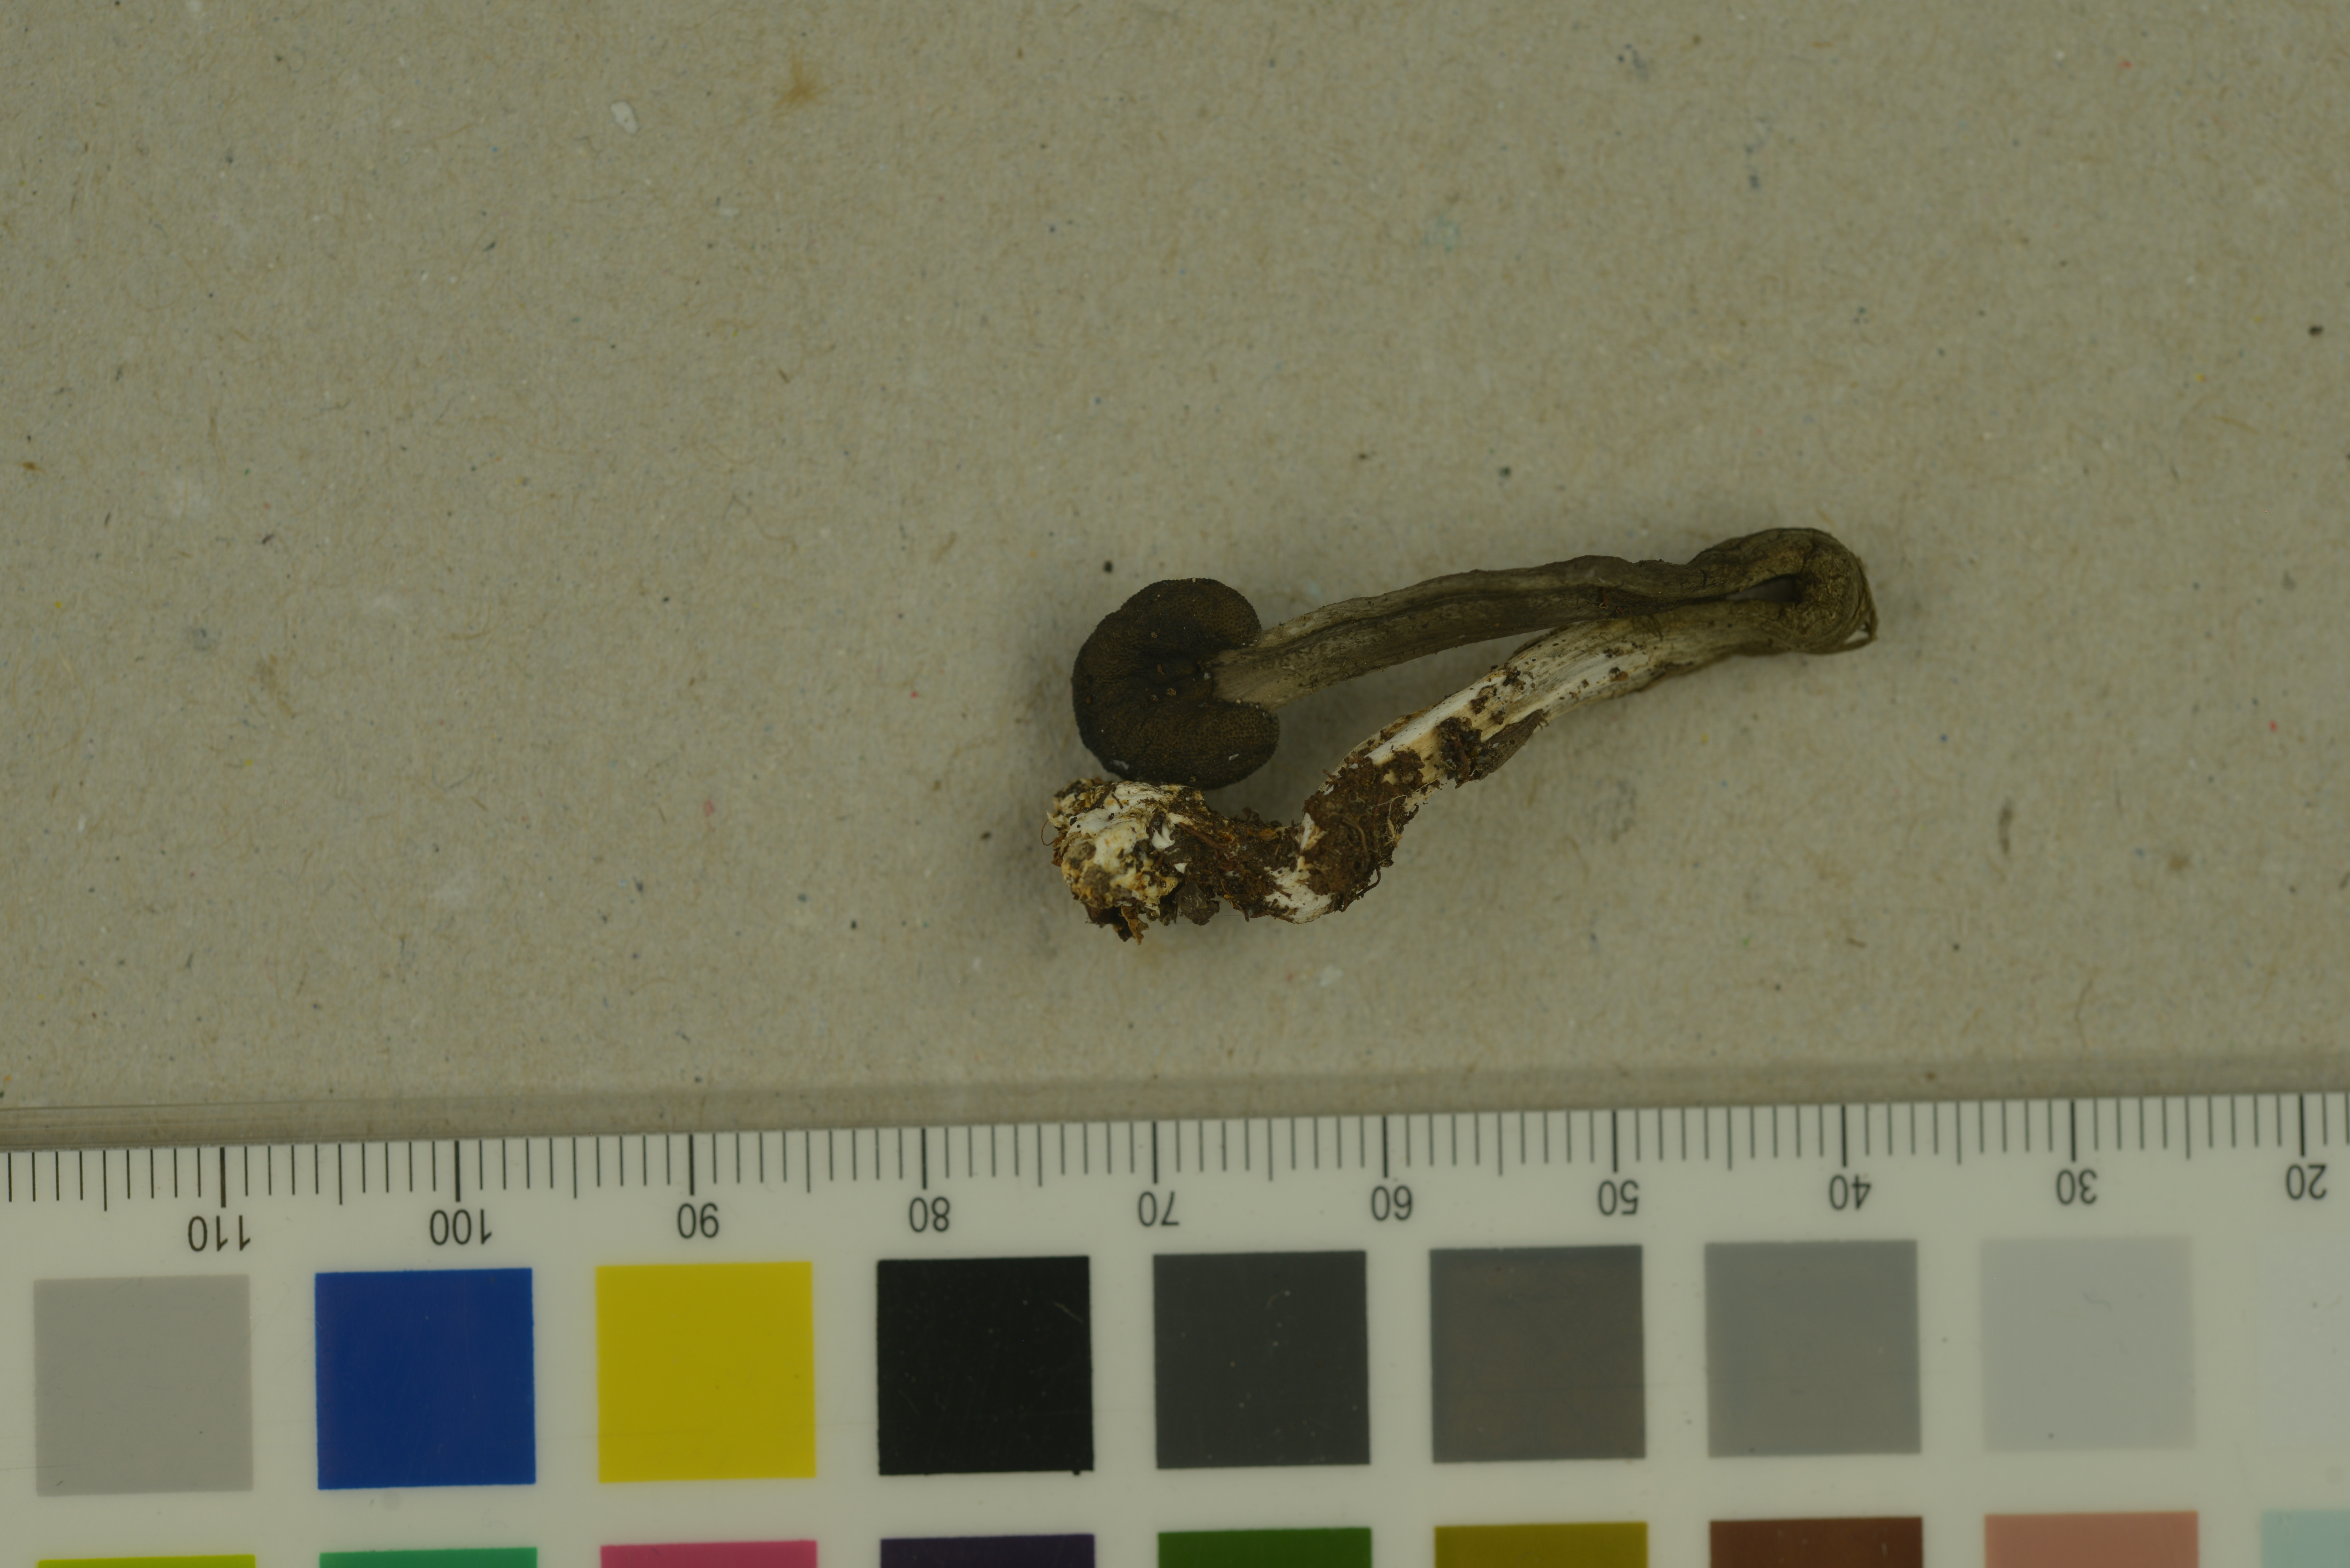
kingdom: Fungi
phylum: Ascomycota
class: Sordariomycetes
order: Hypocreales
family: Ophiocordycipitaceae
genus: Tolypocladium
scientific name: Tolypocladium rouxii
